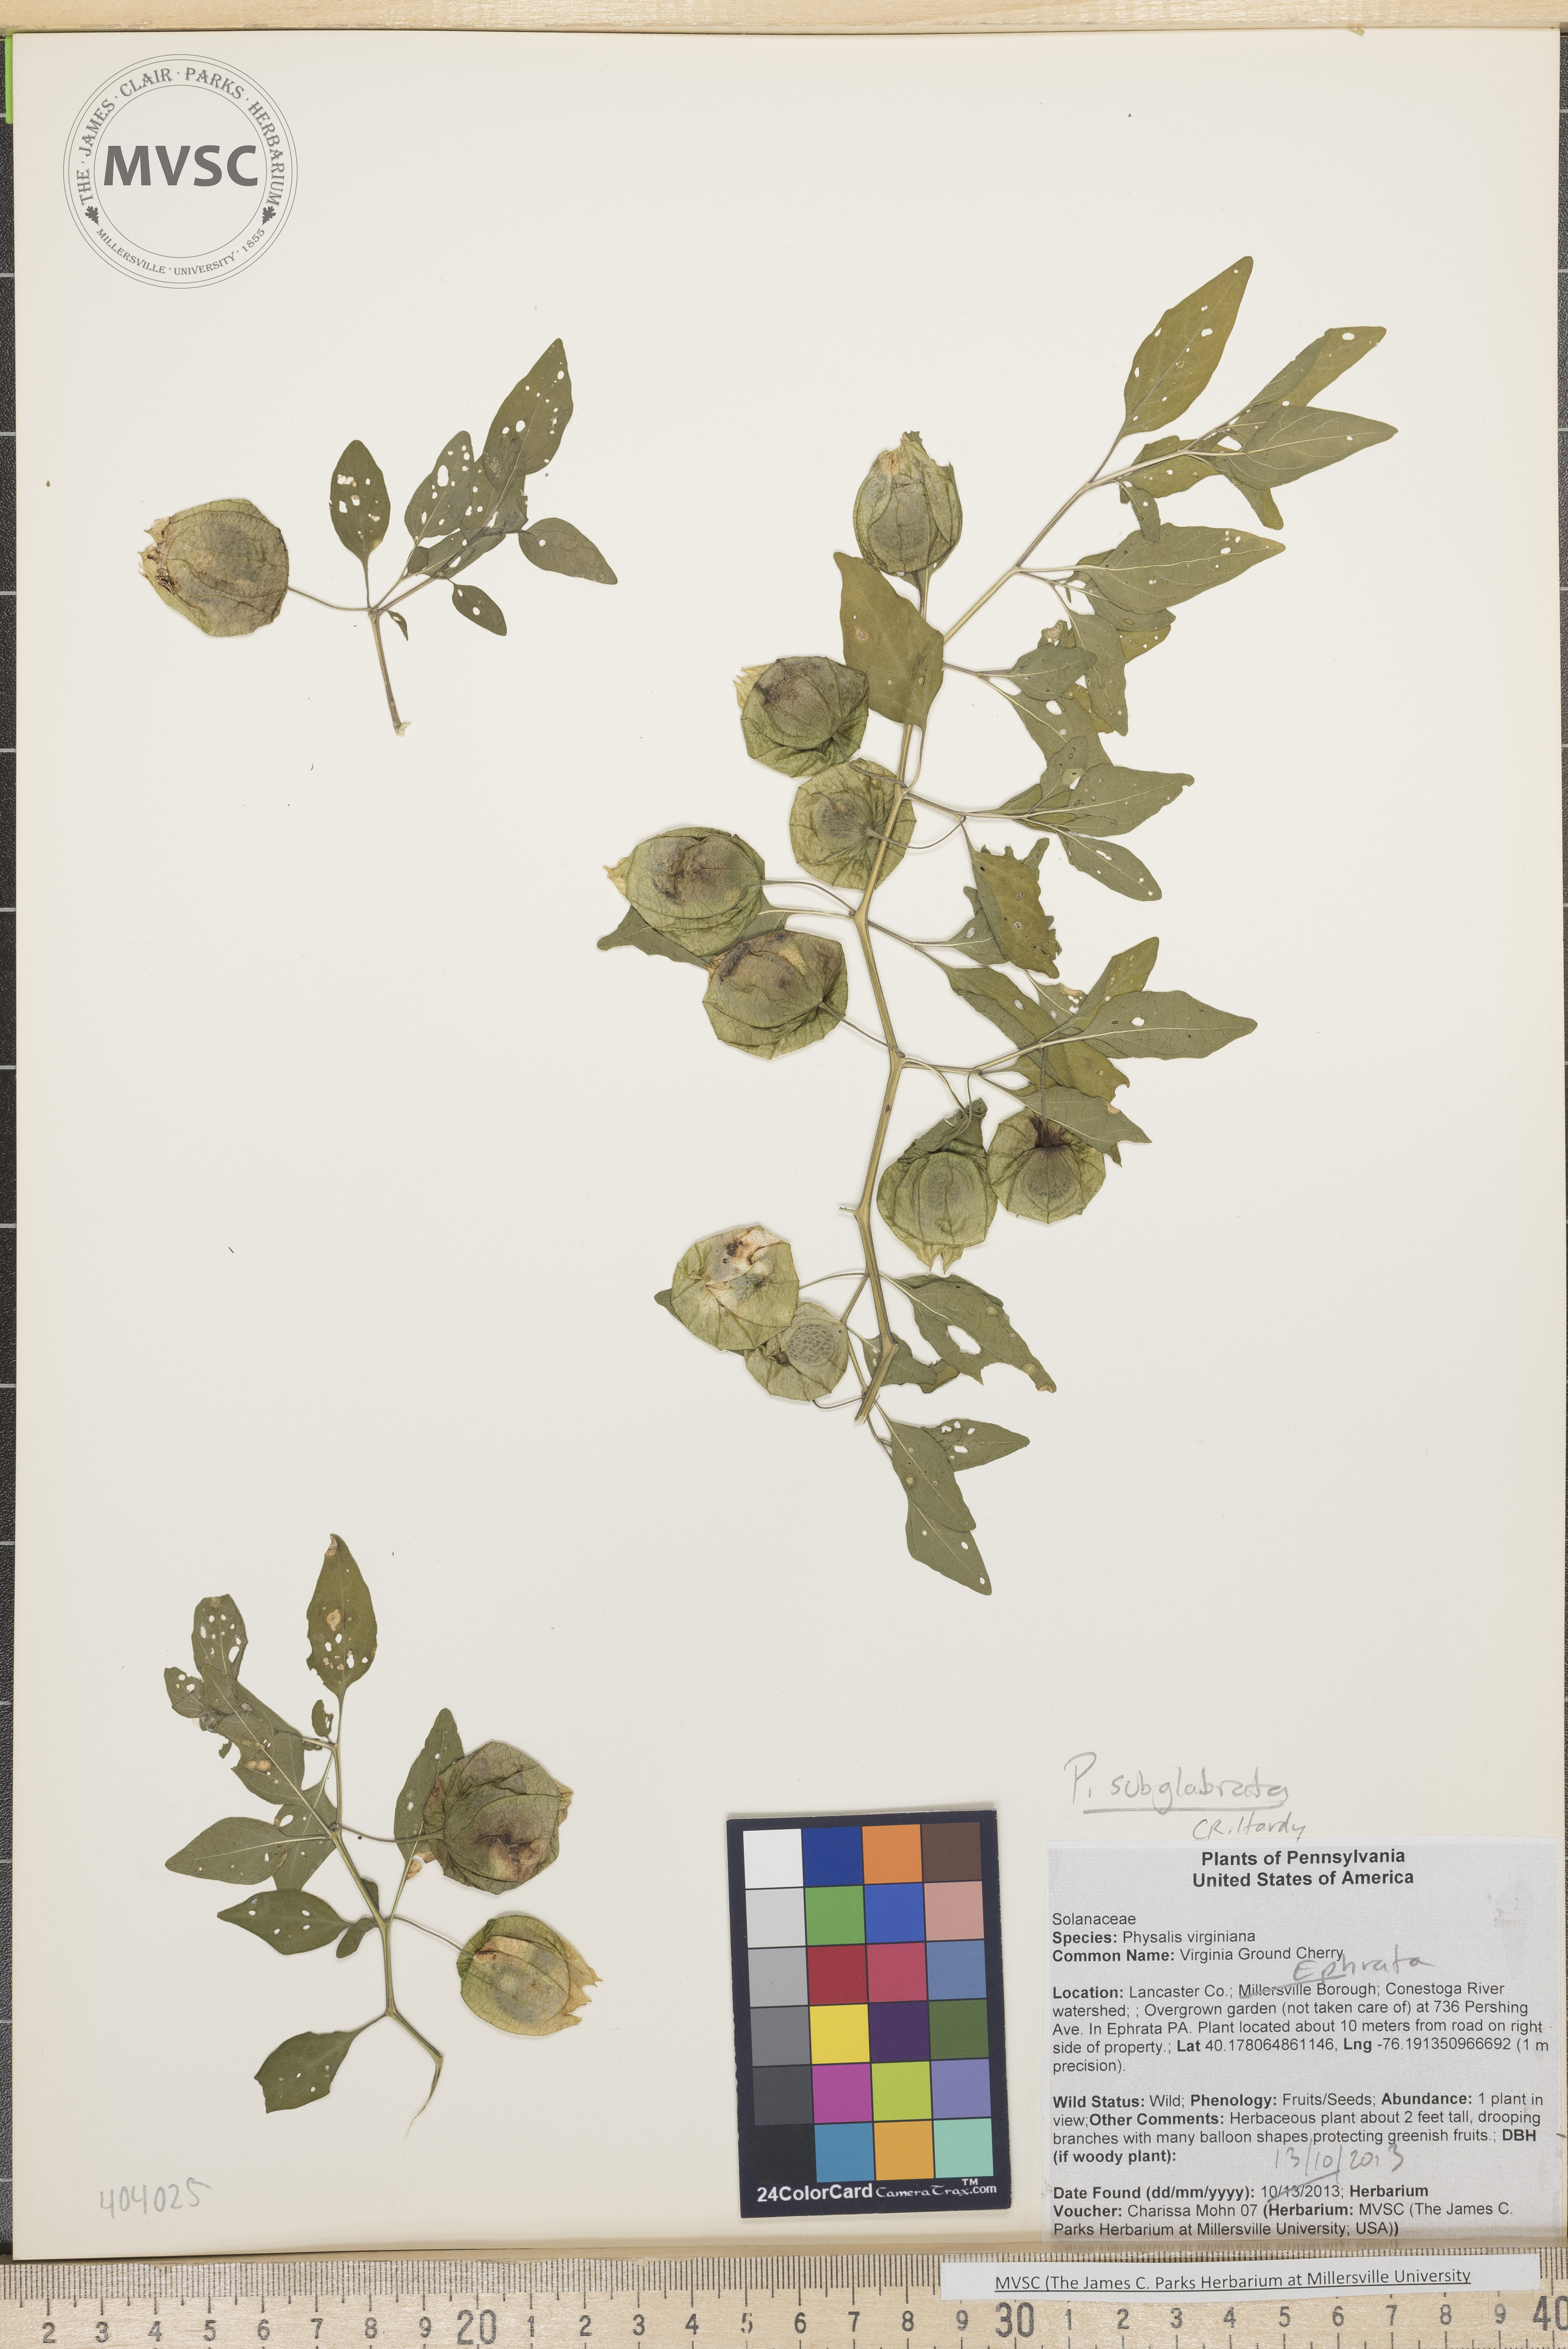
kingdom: Plantae
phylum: Tracheophyta
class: Magnoliopsida
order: Solanales
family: Solanaceae
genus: Physalis
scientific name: Physalis longifolia
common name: Ground-Cherry
